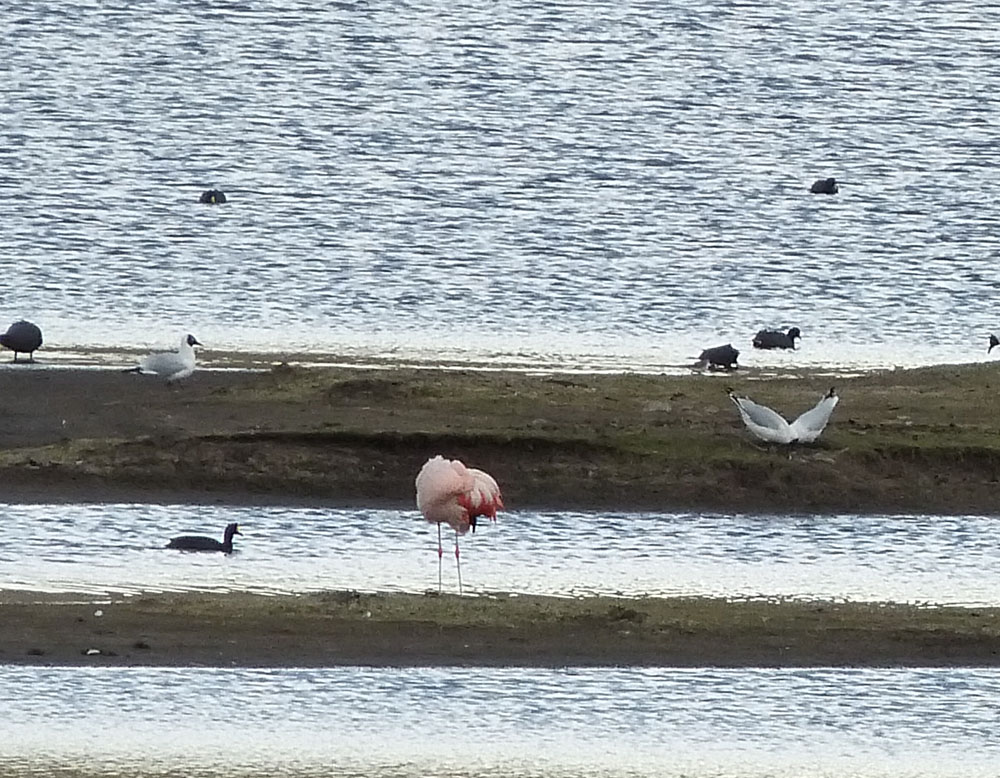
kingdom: Animalia
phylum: Chordata
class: Aves
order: Charadriiformes
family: Laridae
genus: Chroicocephalus
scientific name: Chroicocephalus serranus
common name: Andean gull
